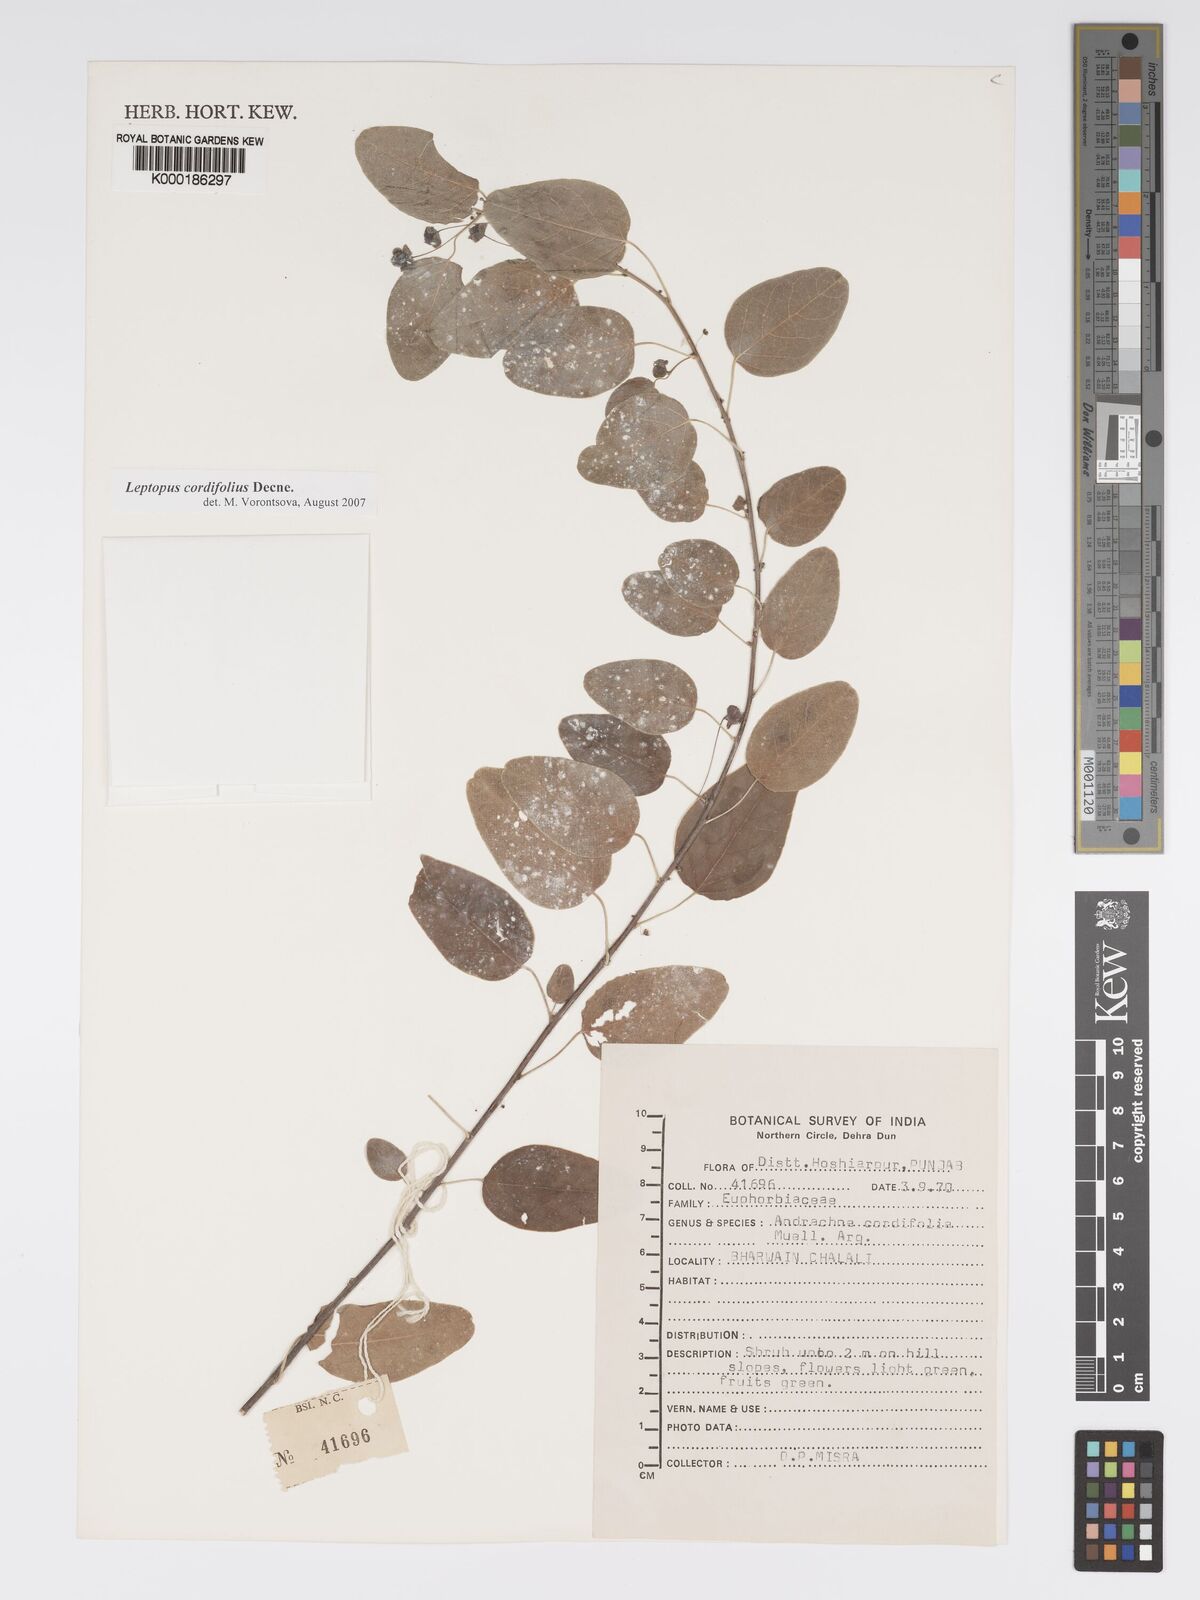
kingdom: Plantae
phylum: Tracheophyta
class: Magnoliopsida
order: Malpighiales
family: Phyllanthaceae
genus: Leptopus
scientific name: Leptopus cordifolius
